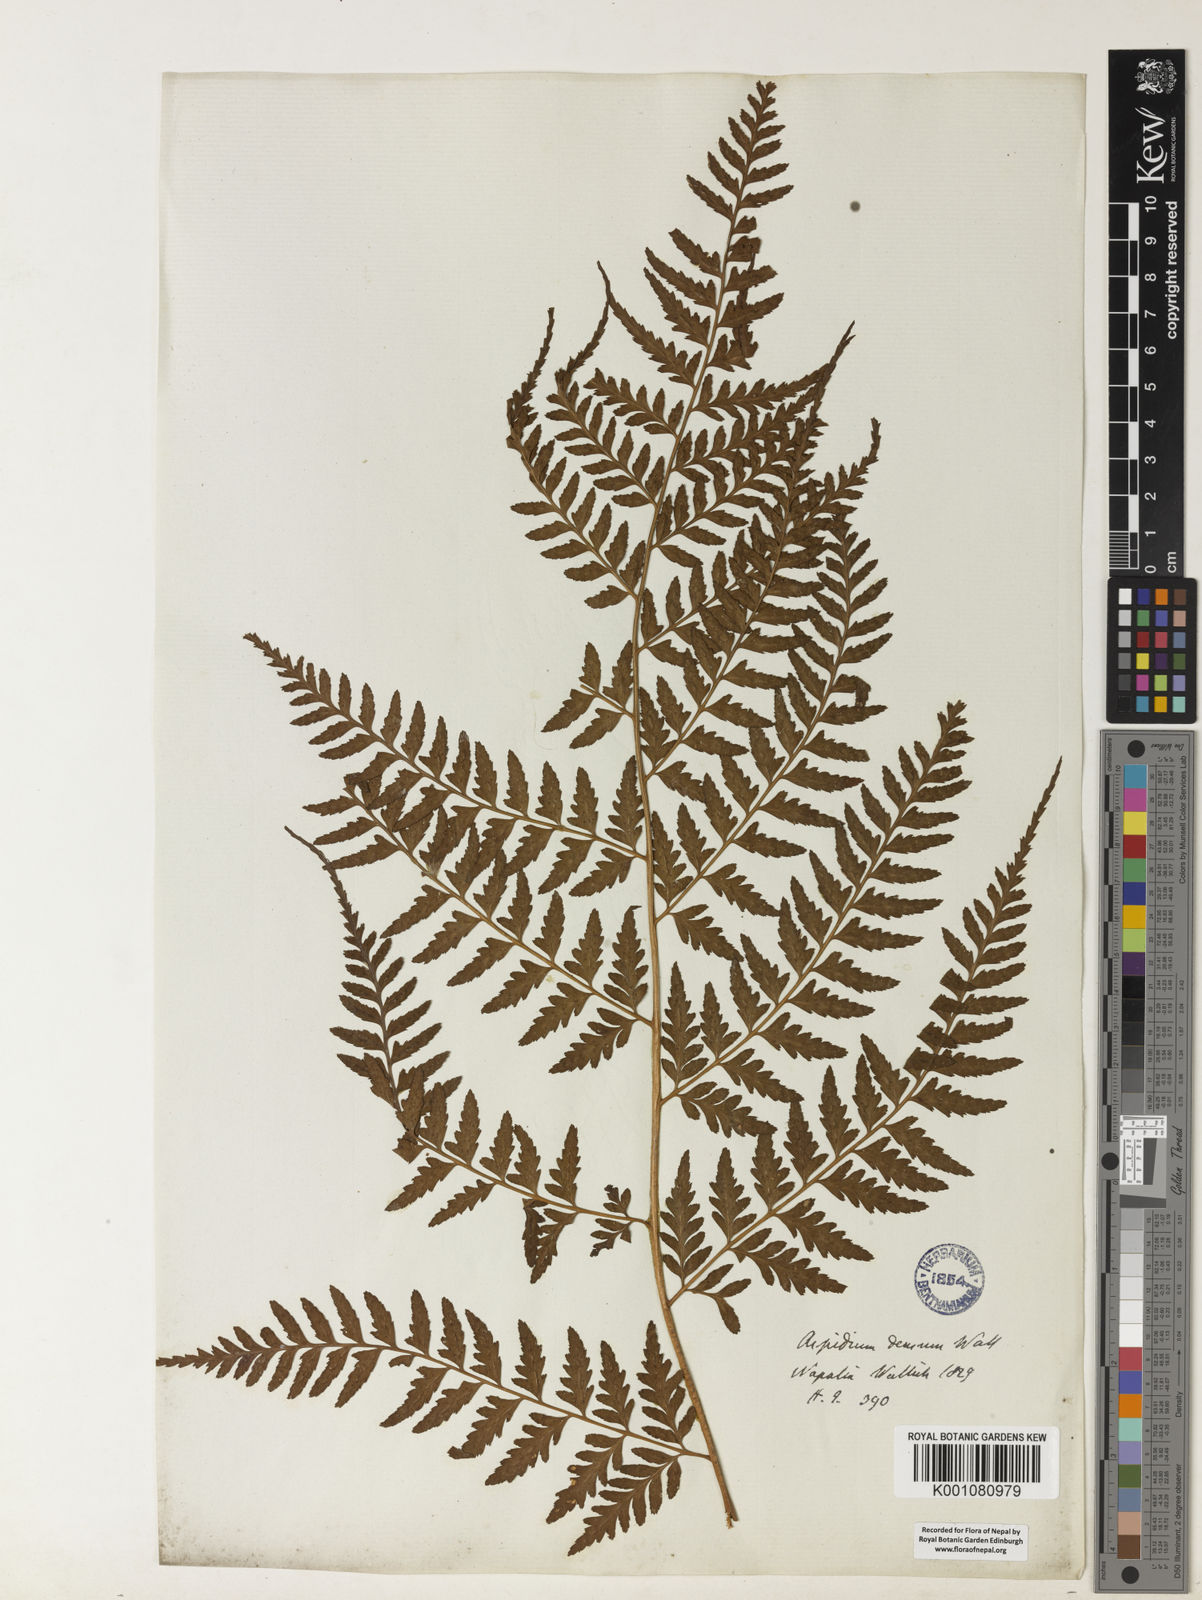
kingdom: Plantae
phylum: Tracheophyta
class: Polypodiopsida
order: Polypodiales
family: Dryopteridaceae
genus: Dryopteris
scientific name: Dryopteris sparsa
